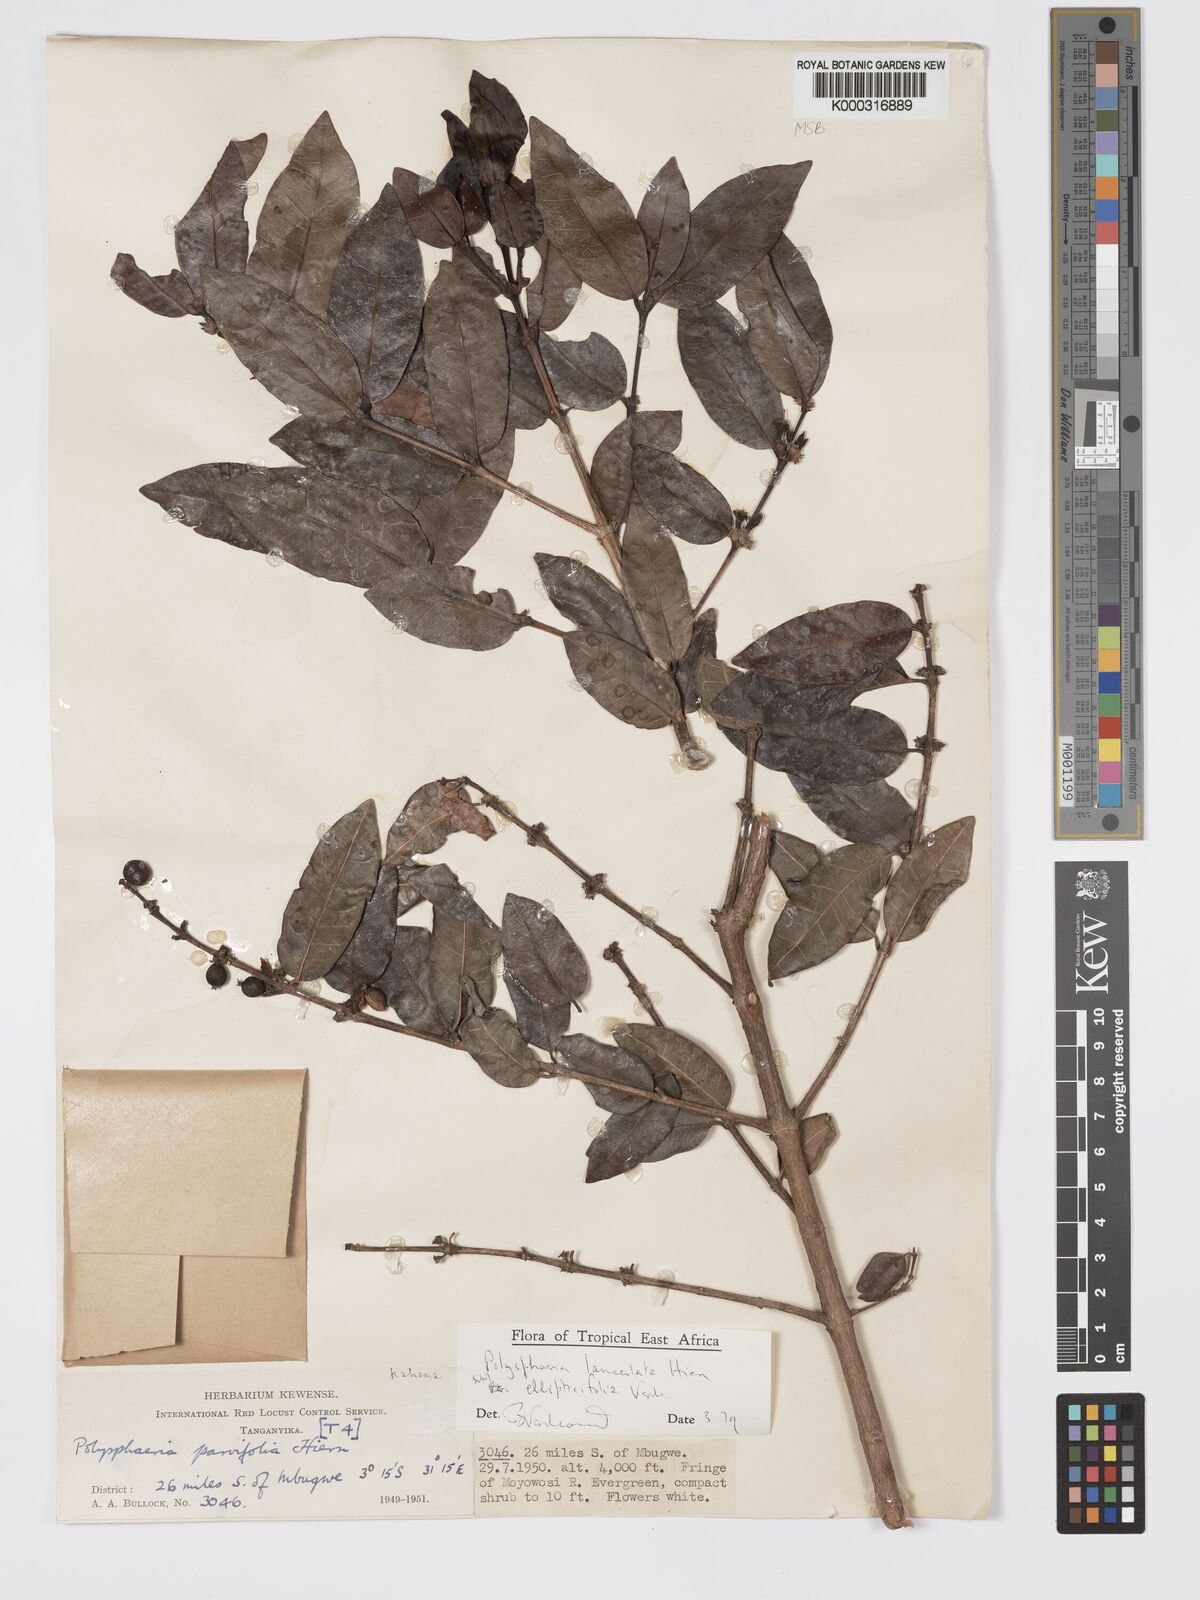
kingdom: Plantae
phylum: Tracheophyta
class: Magnoliopsida
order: Gentianales
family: Rubiaceae
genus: Polysphaeria
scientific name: Polysphaeria lanceolata
